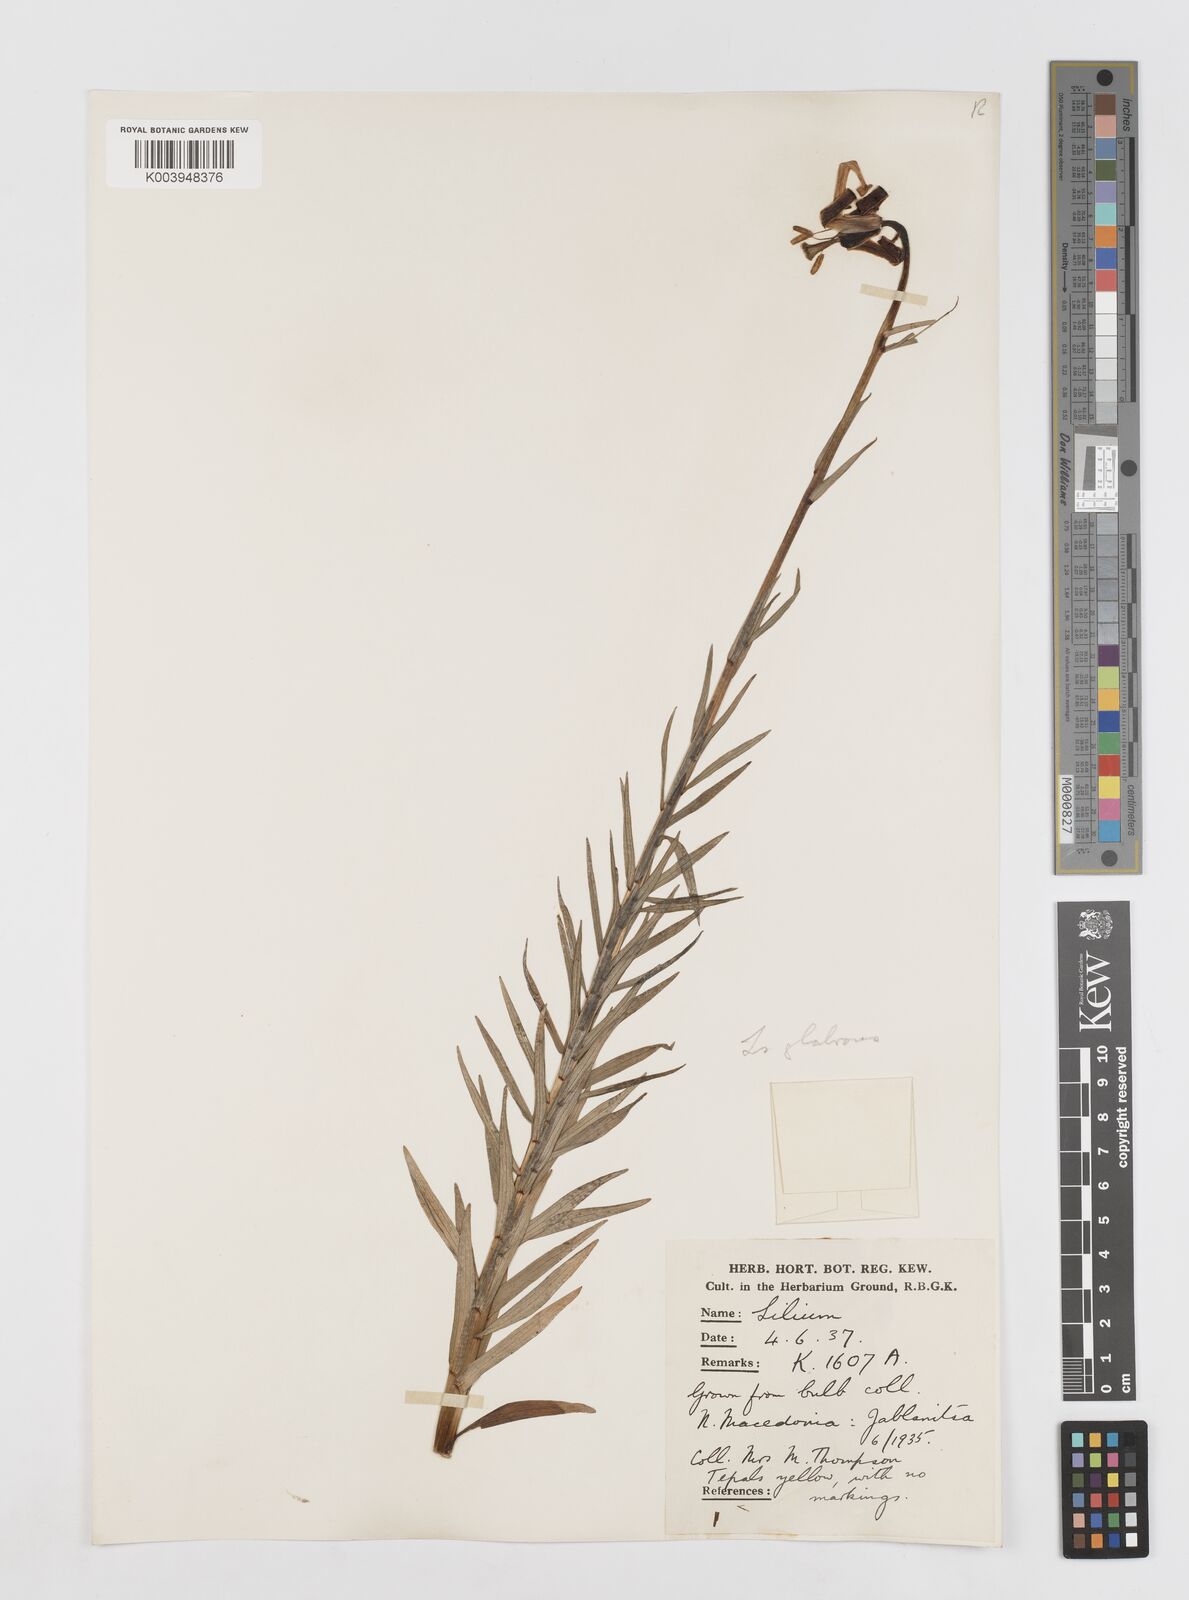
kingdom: Plantae
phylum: Tracheophyta
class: Liliopsida
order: Liliales
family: Liliaceae
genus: Lilium
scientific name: Lilium carniolicum
